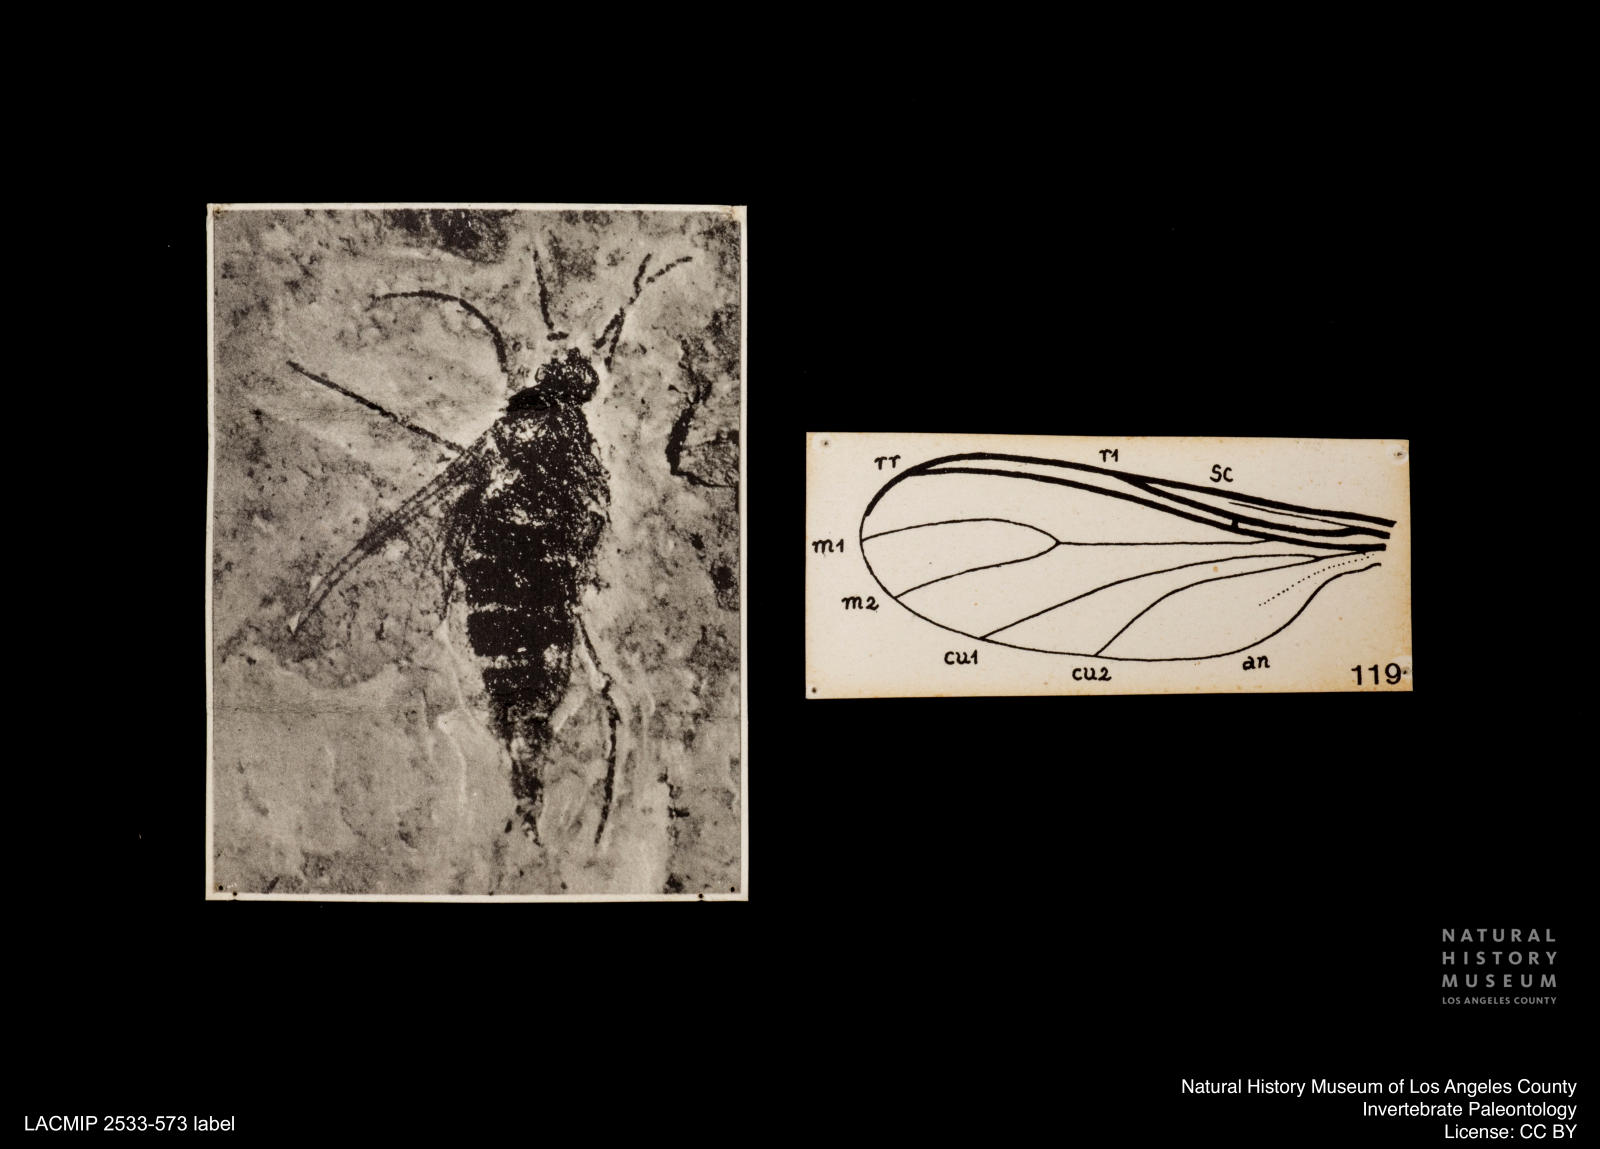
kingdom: Animalia
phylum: Arthropoda
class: Insecta
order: Diptera
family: Sciaridae
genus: Sciara
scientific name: Sciara compta
